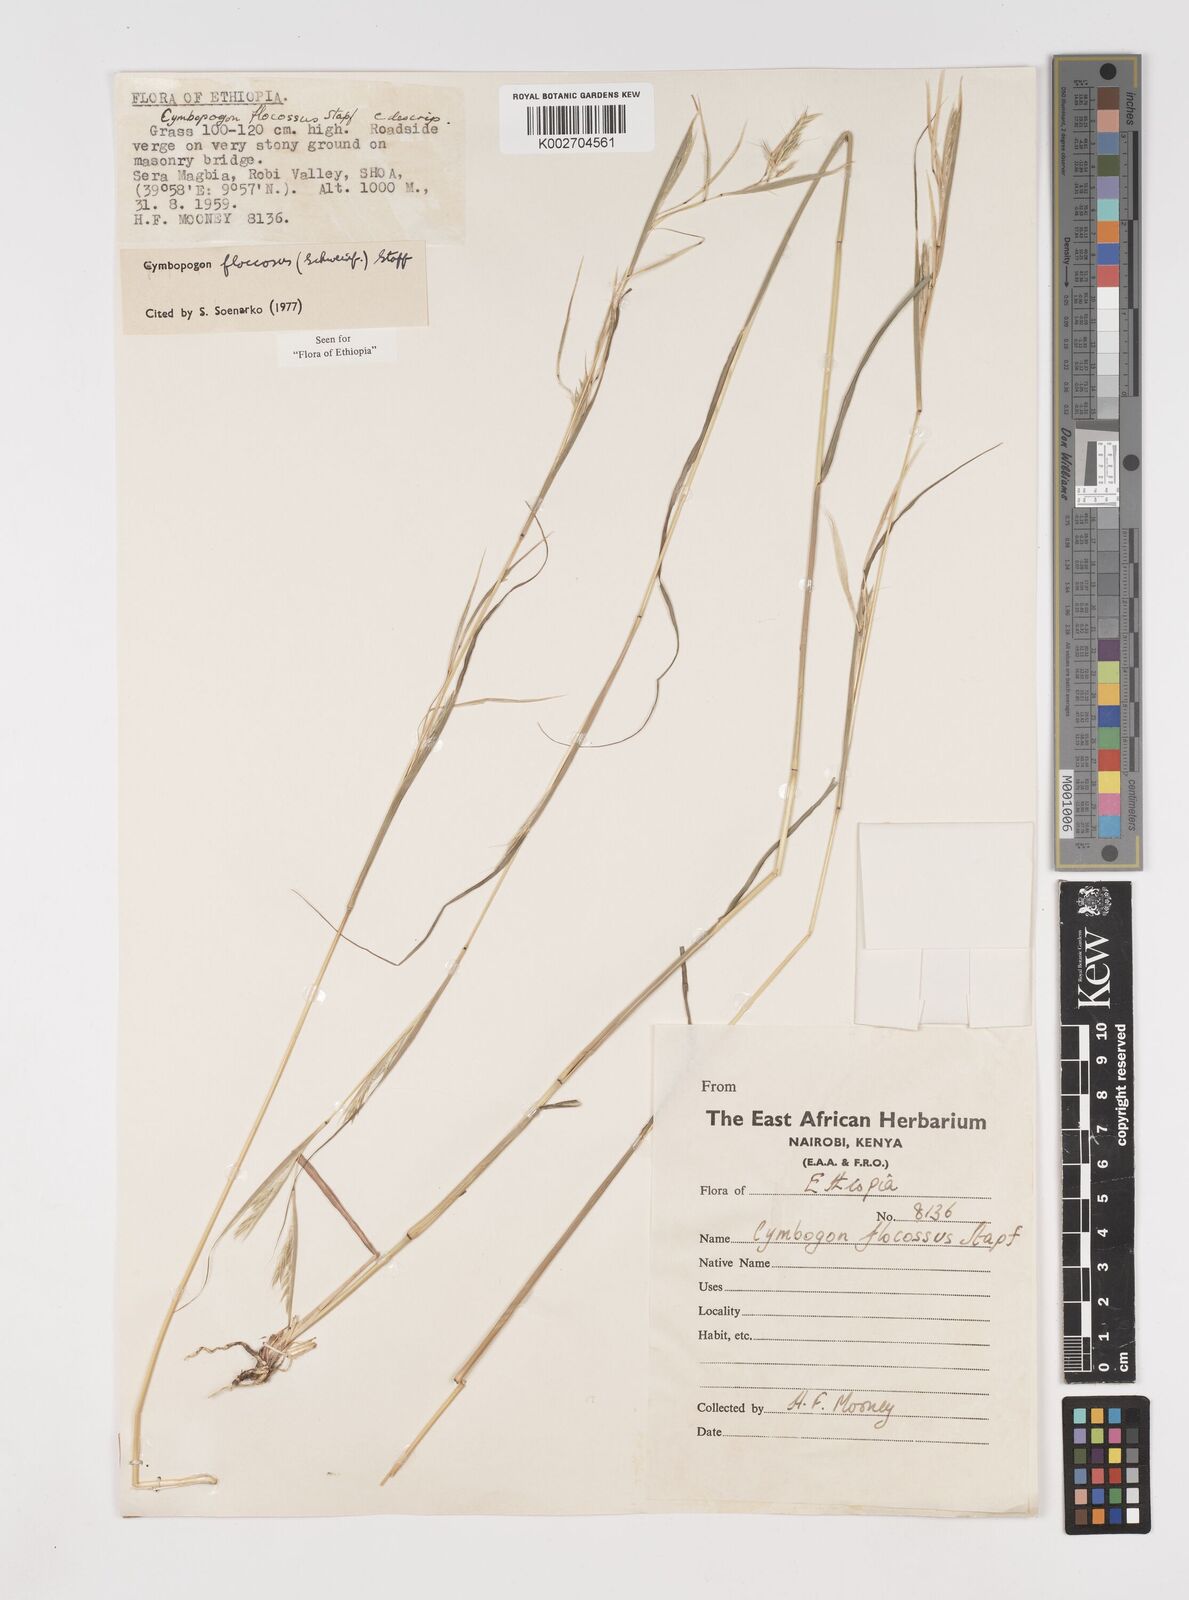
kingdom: Plantae
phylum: Tracheophyta
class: Liliopsida
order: Poales
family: Poaceae
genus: Cymbopogon
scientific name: Cymbopogon
